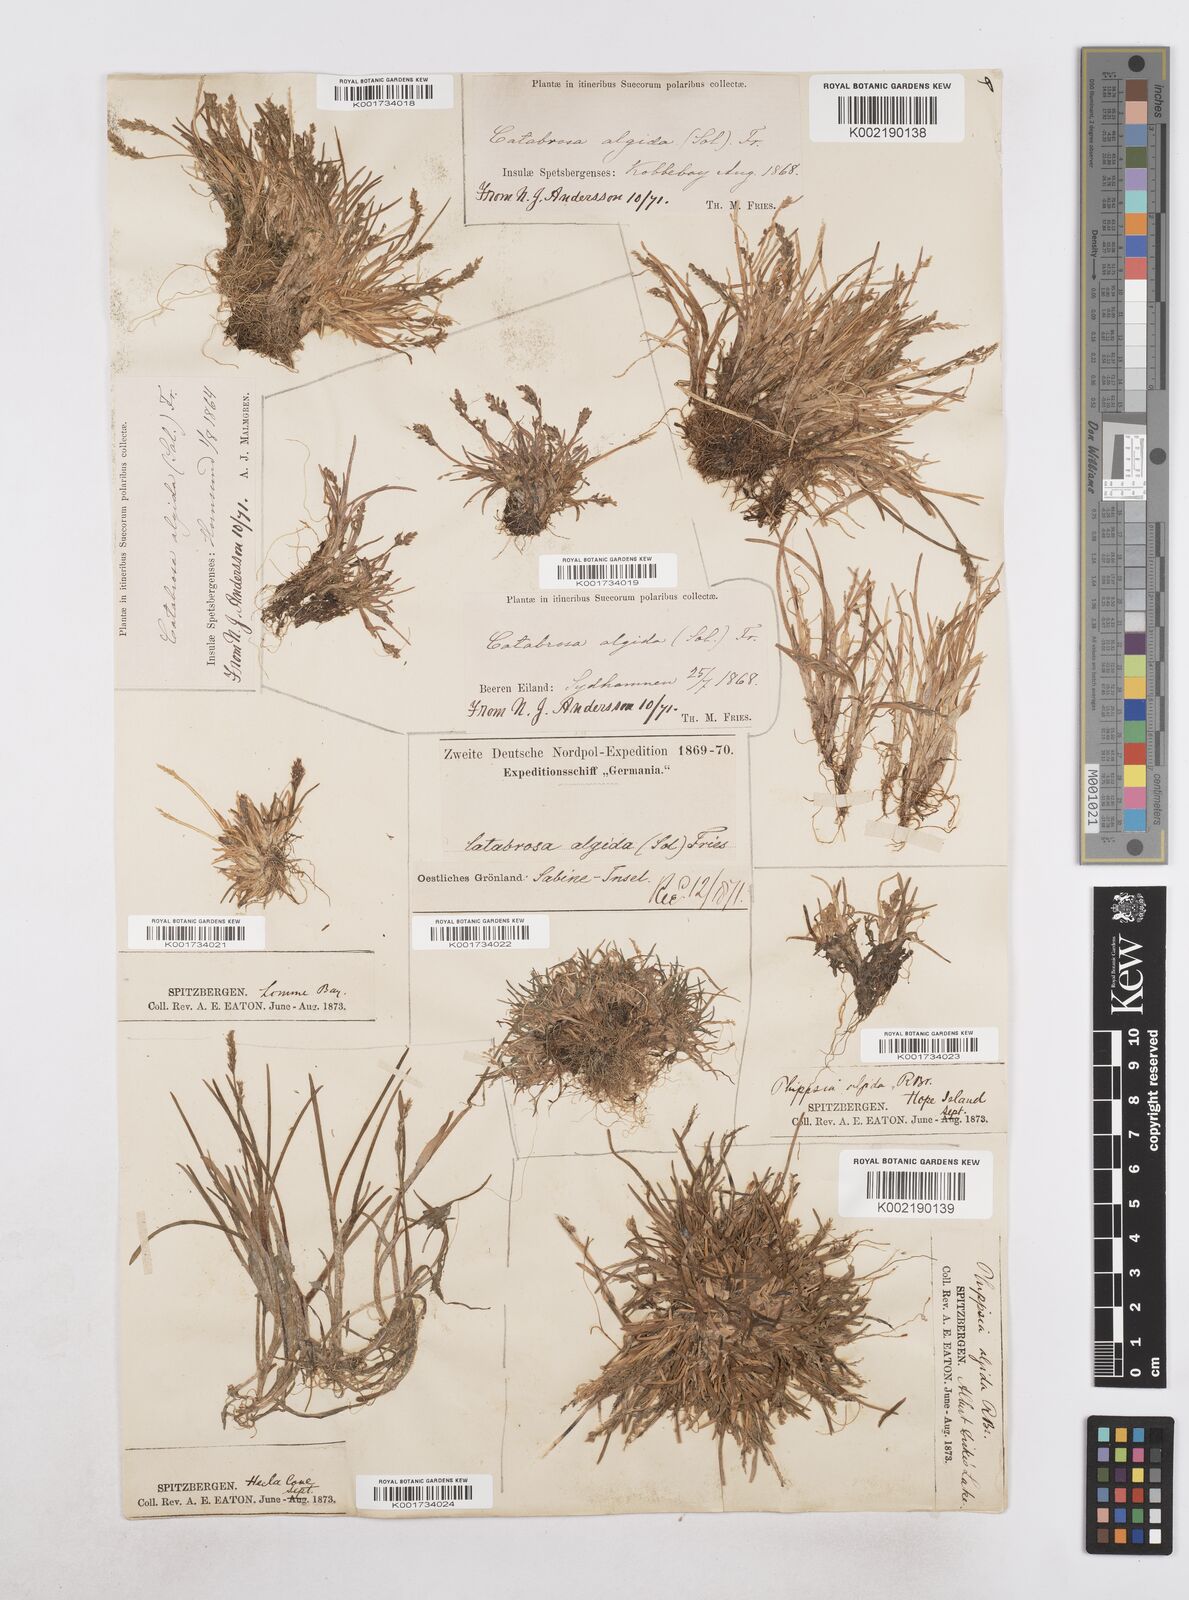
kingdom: Plantae
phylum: Tracheophyta
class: Liliopsida
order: Poales
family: Poaceae
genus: Phippsia
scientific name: Phippsia algida
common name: Ice grass
